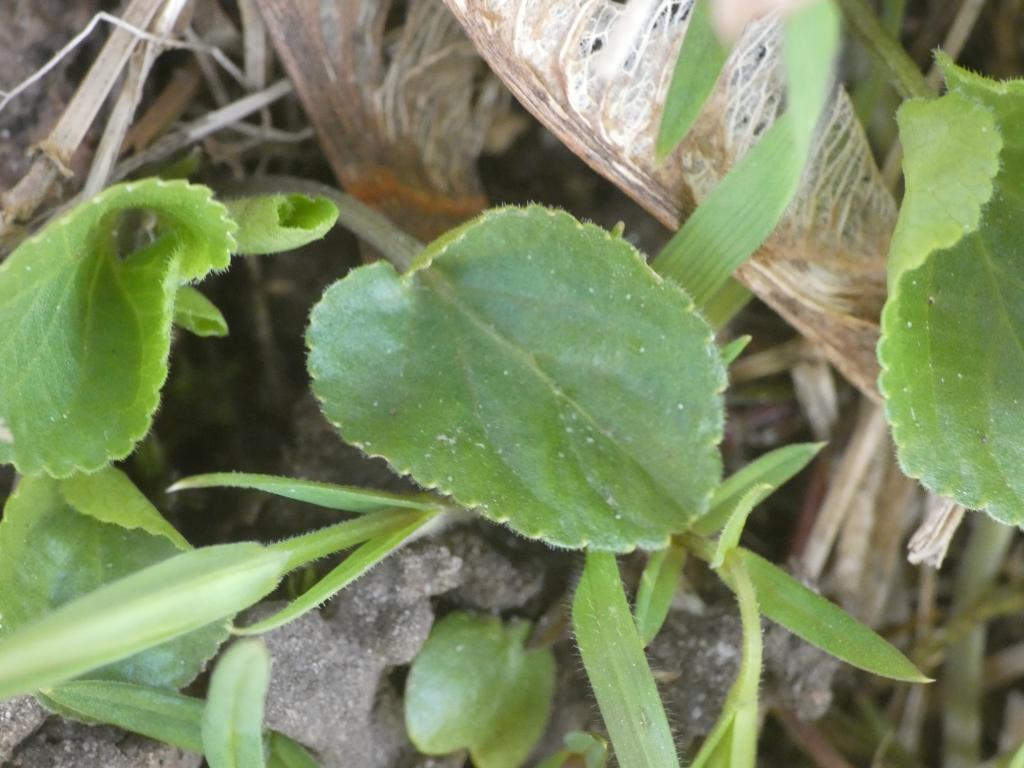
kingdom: Plantae
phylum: Tracheophyta
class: Magnoliopsida
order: Malpighiales
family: Violaceae
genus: Viola
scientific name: Viola odorata
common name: Marts-viol
